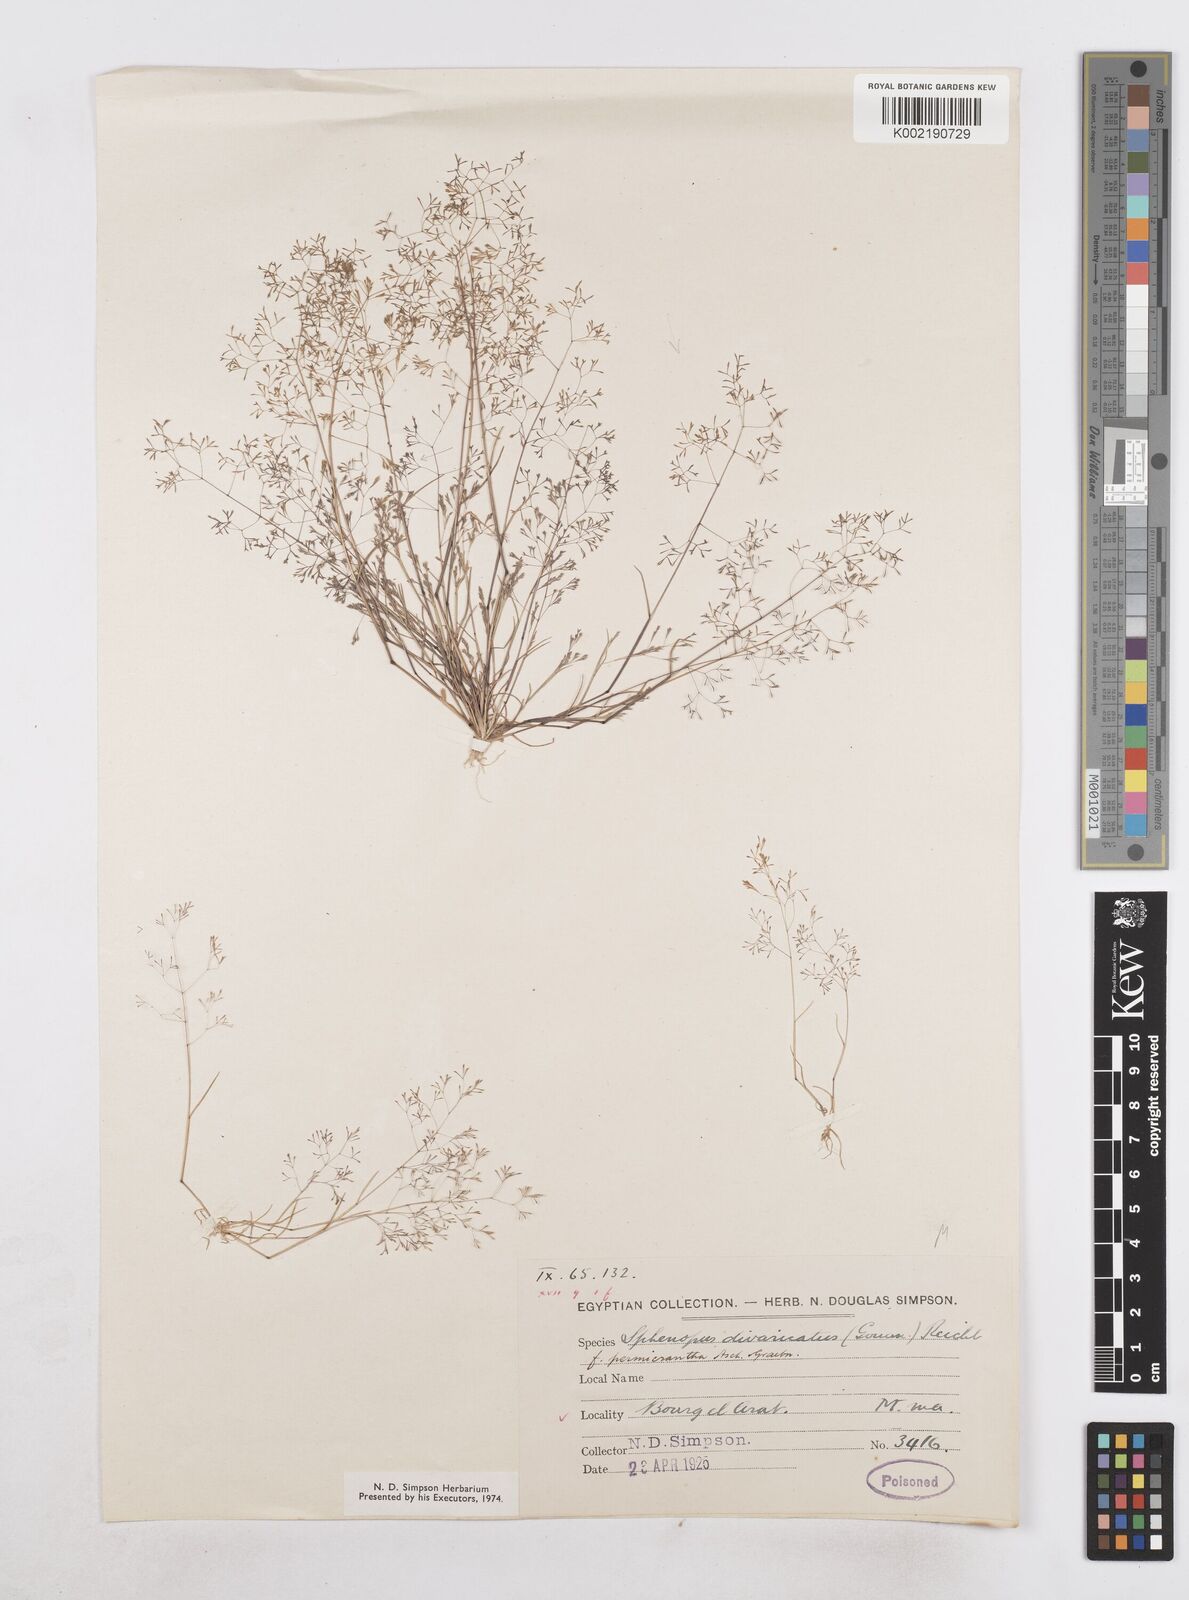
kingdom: Plantae
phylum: Tracheophyta
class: Liliopsida
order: Poales
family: Poaceae
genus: Sphenopus
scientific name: Sphenopus divaricatus
